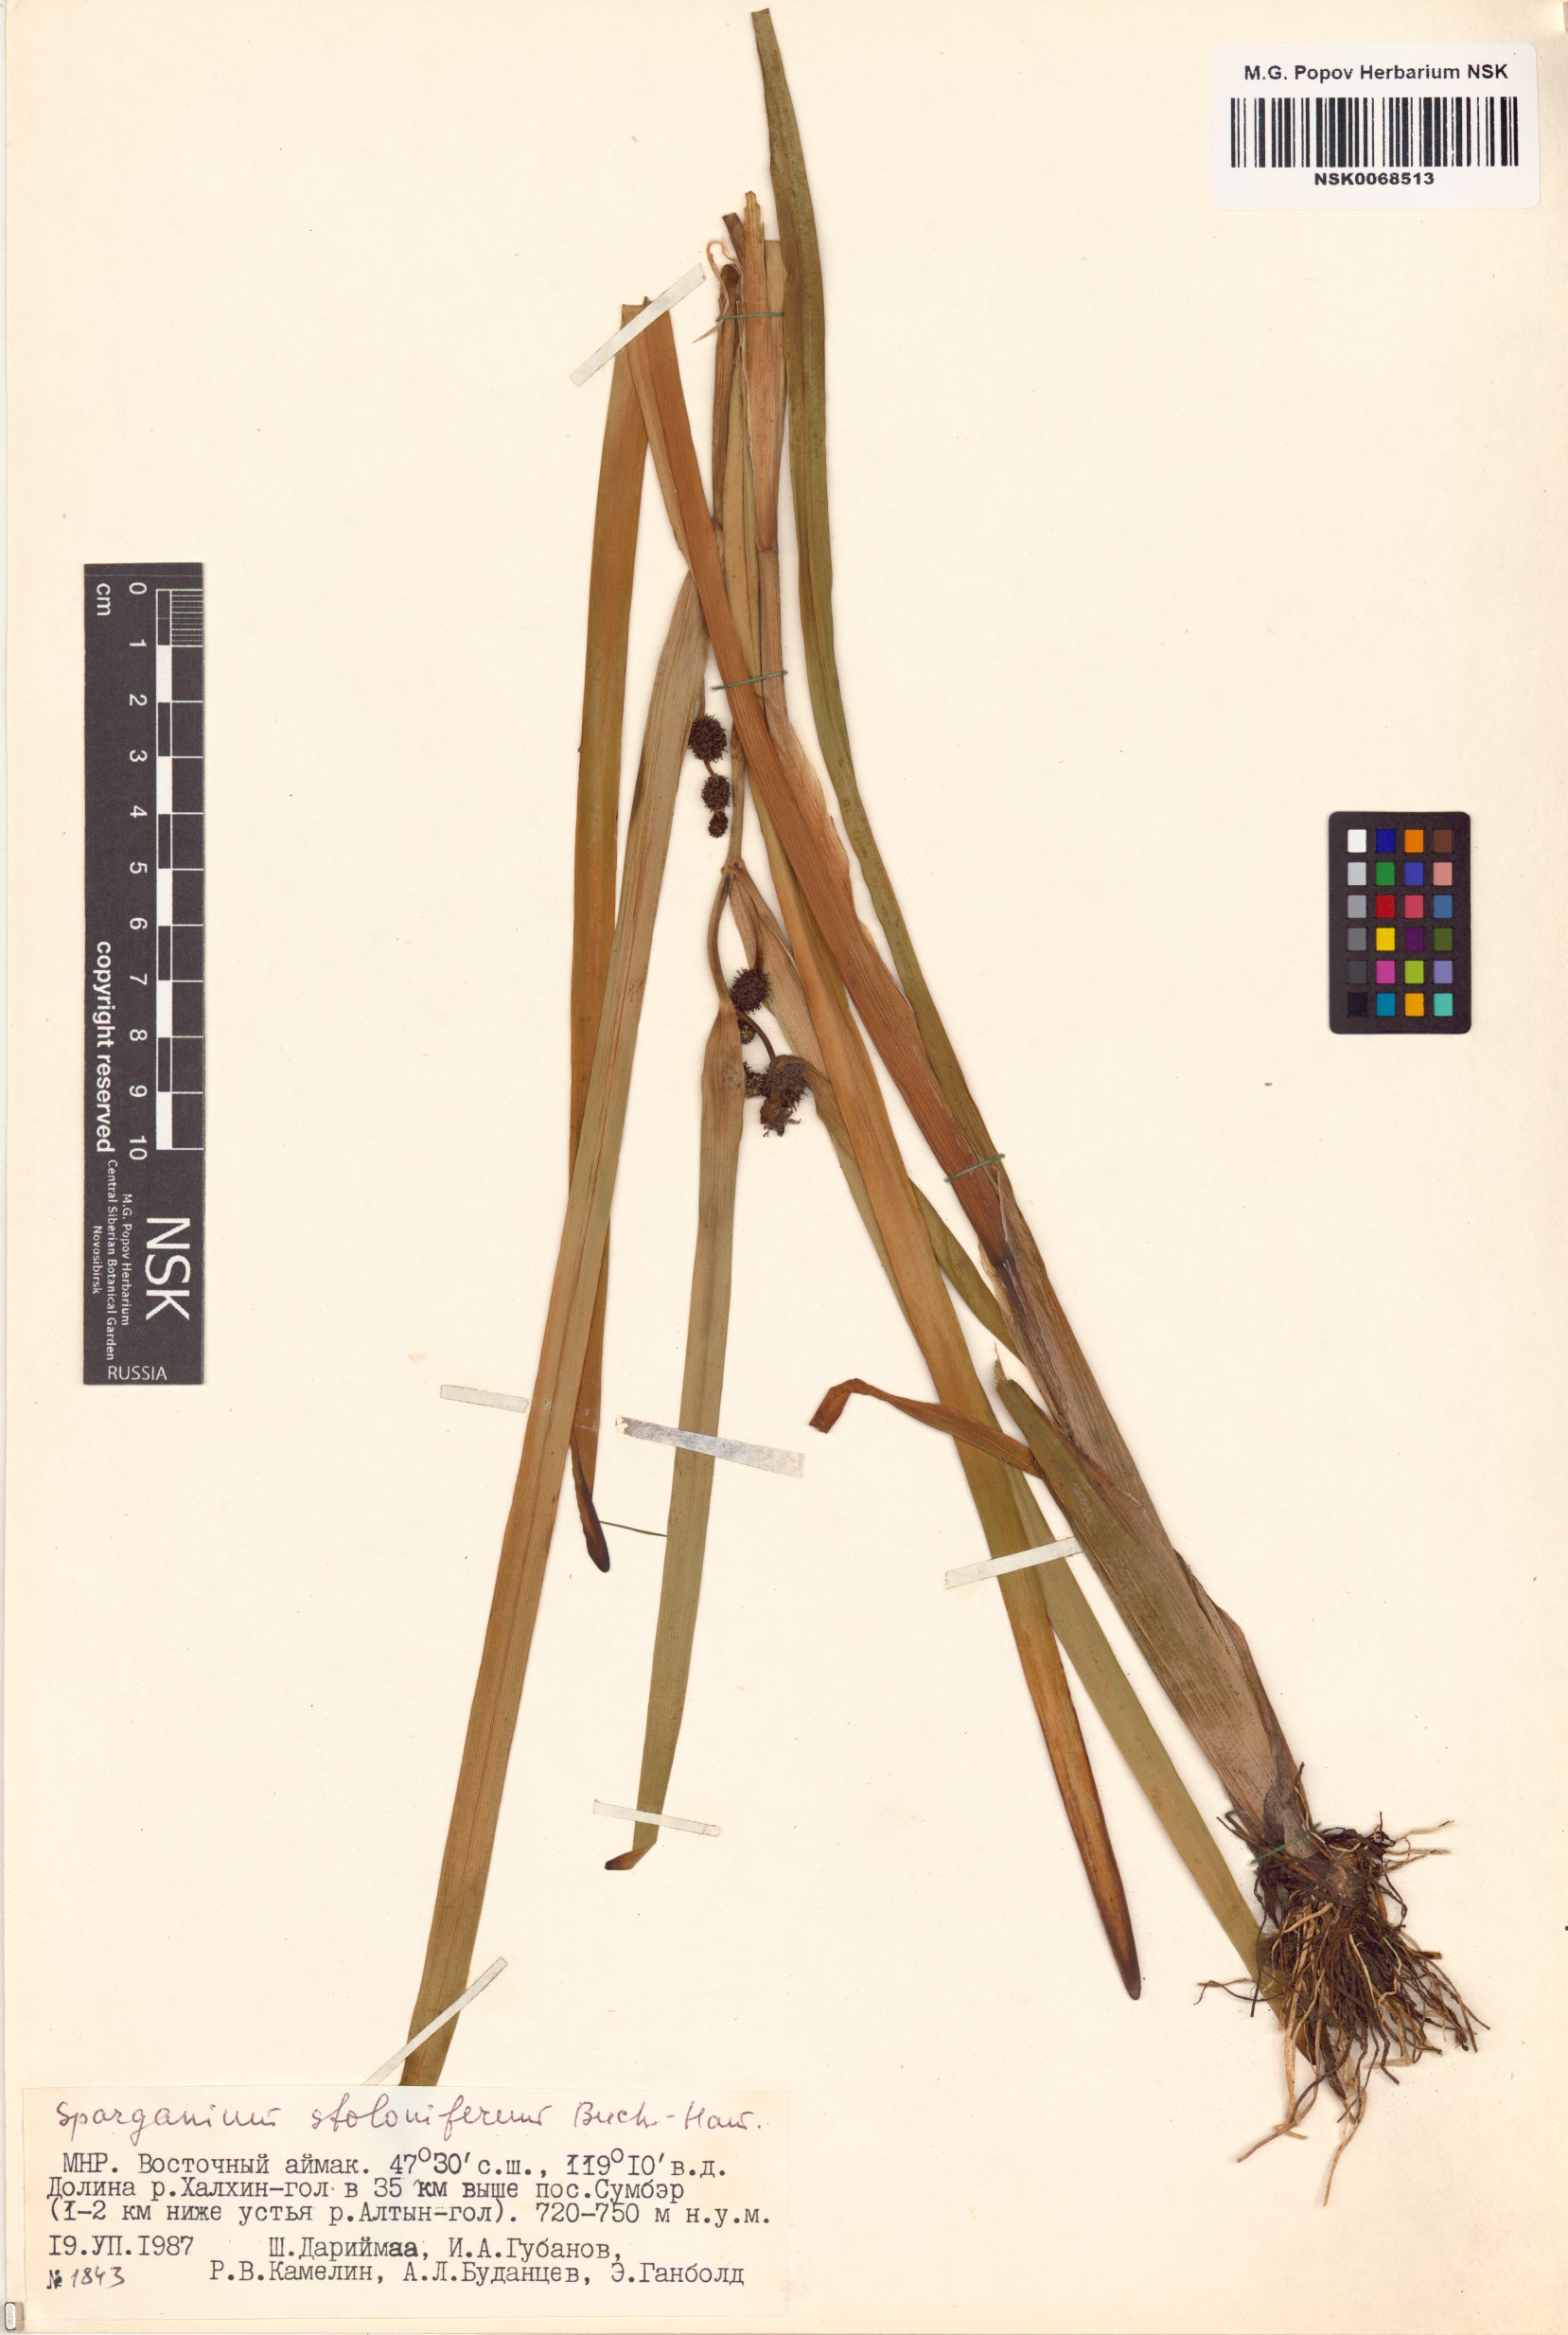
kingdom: Plantae
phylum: Tracheophyta
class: Liliopsida
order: Poales
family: Typhaceae
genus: Sparganium
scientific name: Sparganium stoloniferum
